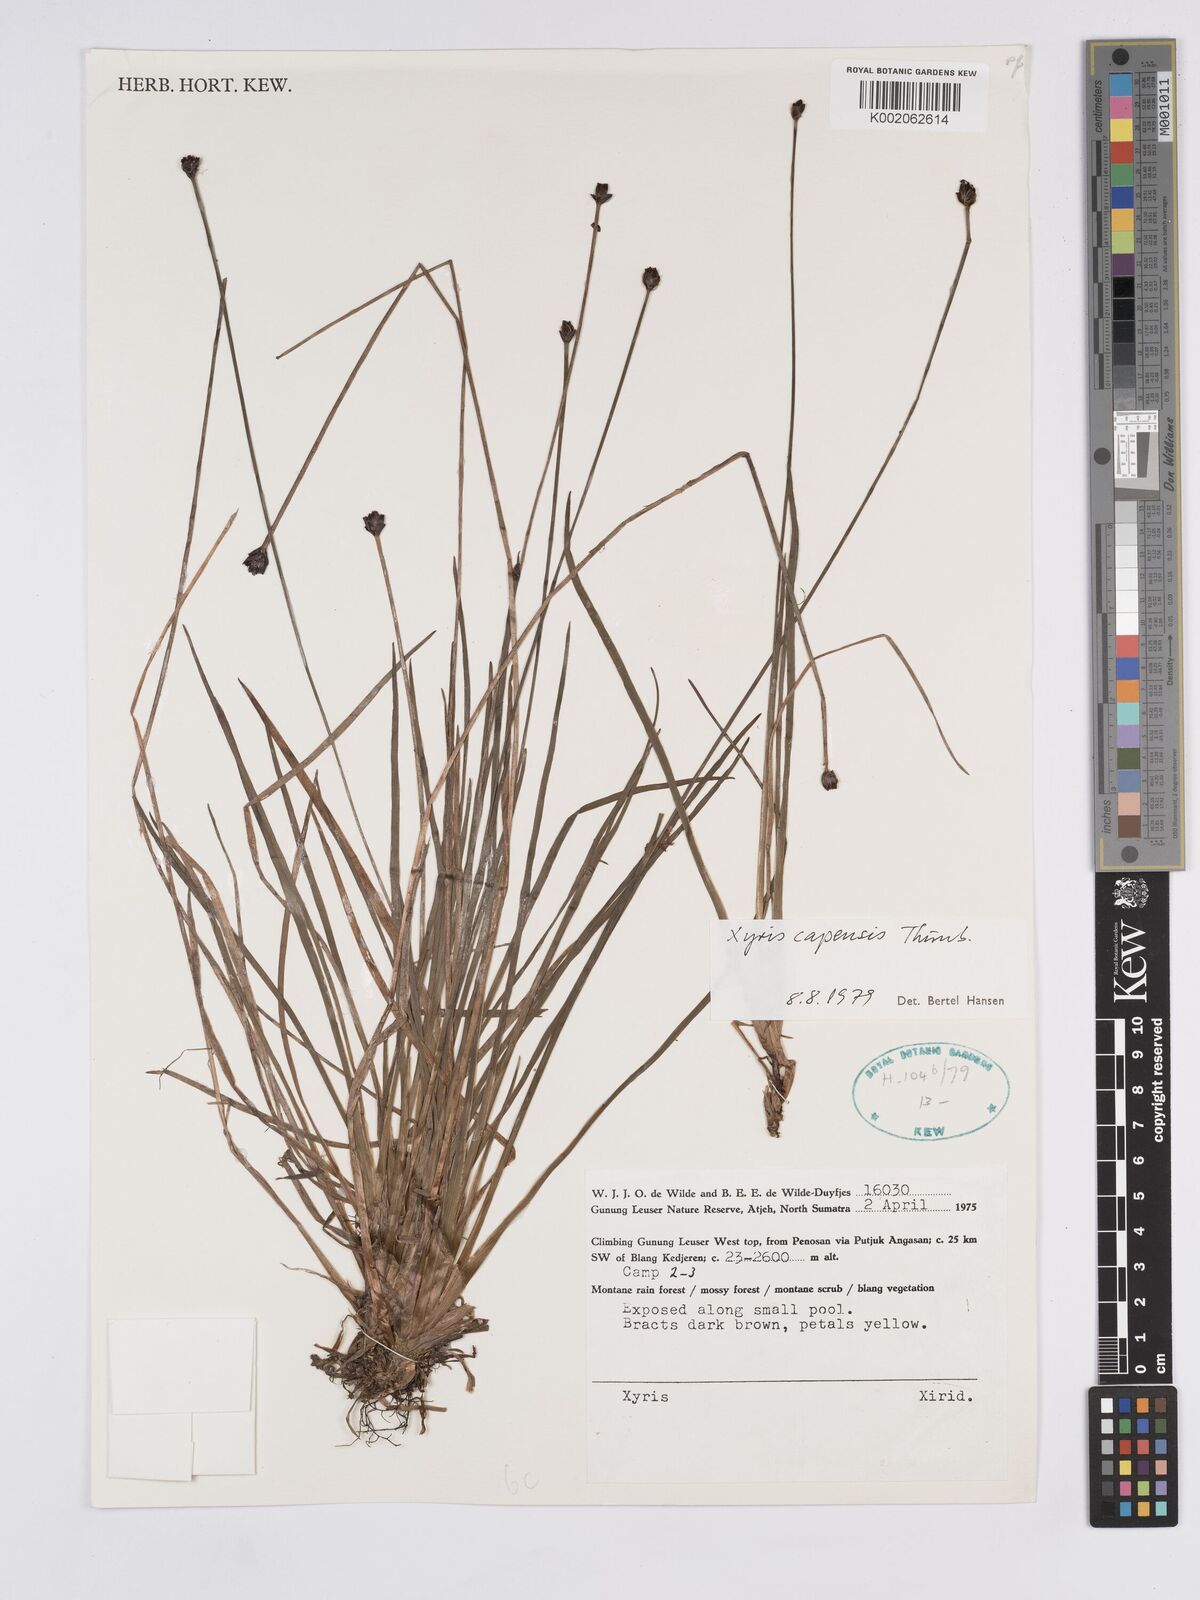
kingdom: Plantae
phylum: Tracheophyta
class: Liliopsida
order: Poales
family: Xyridaceae
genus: Xyris
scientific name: Xyris capensis
